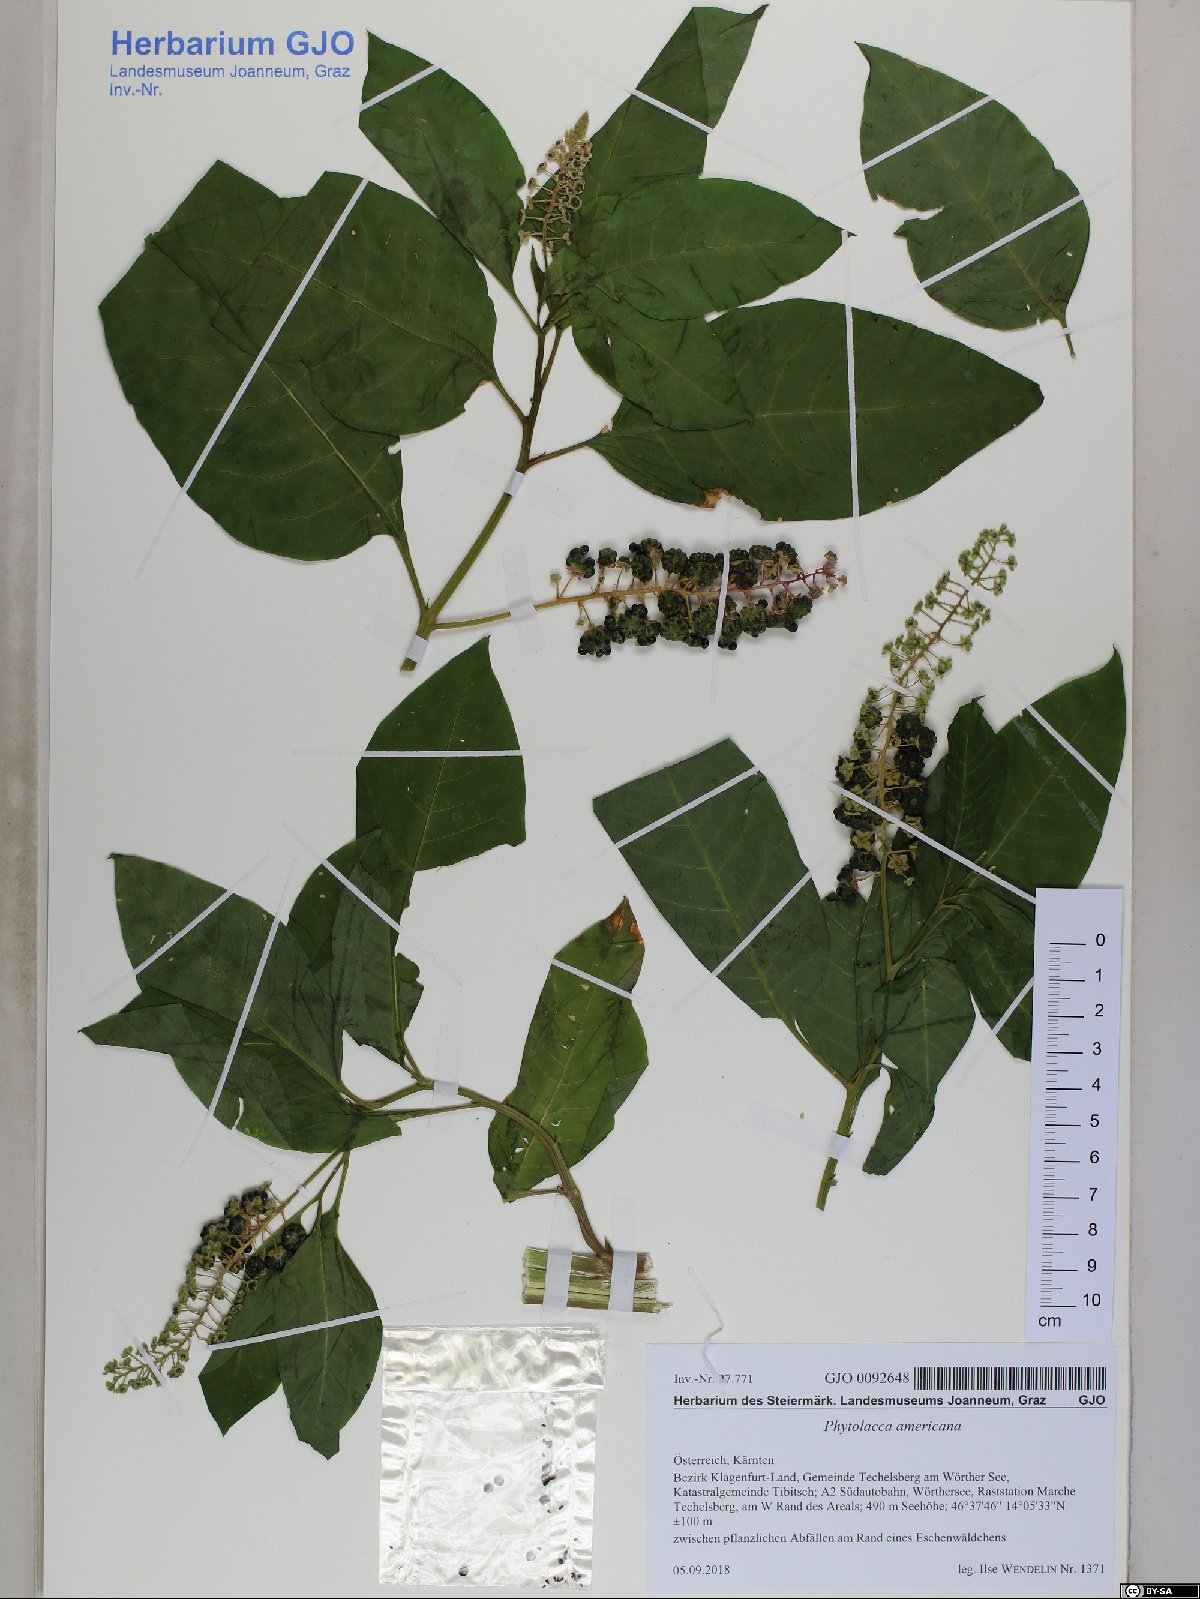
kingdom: Plantae
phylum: Tracheophyta
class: Magnoliopsida
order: Caryophyllales
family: Phytolaccaceae
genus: Phytolacca
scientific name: Phytolacca americana
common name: American pokeweed
